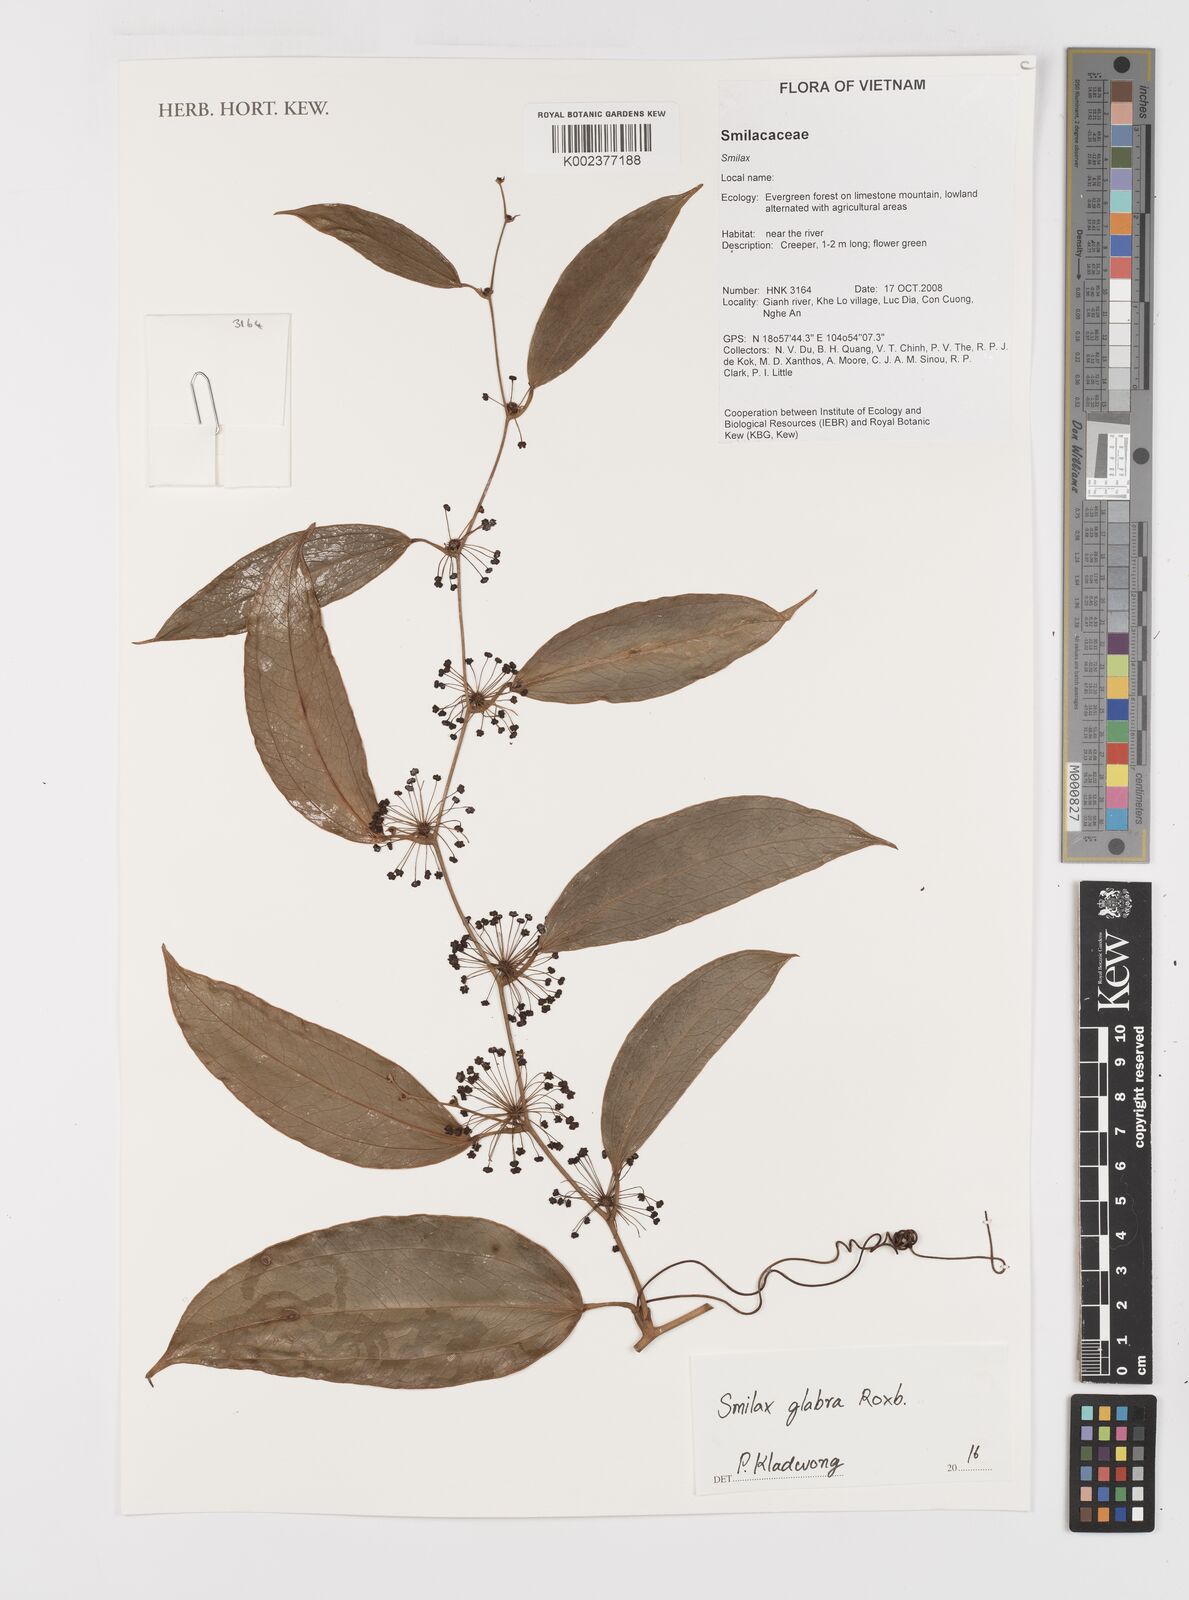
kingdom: Plantae
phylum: Tracheophyta
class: Liliopsida
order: Liliales
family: Smilacaceae
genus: Smilax
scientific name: Smilax glabra
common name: Chinese smilax
